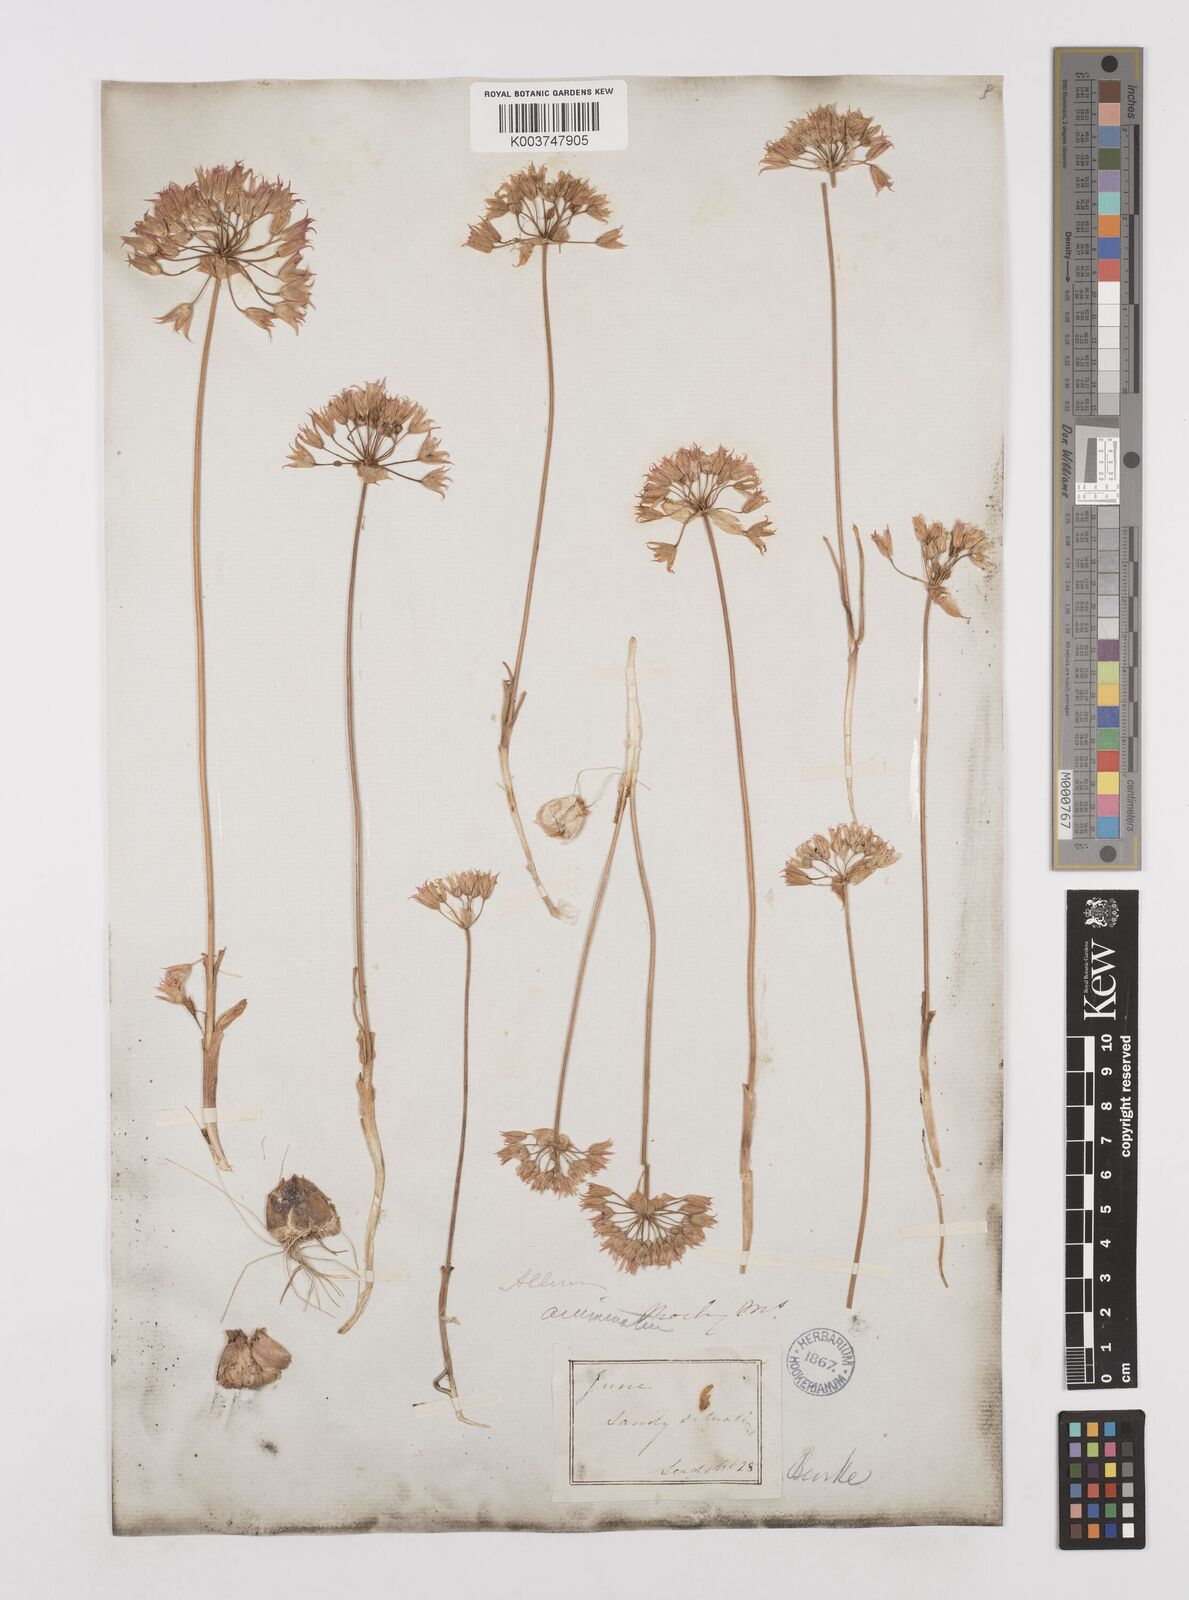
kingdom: Plantae
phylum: Tracheophyta
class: Liliopsida
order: Asparagales
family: Amaryllidaceae
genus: Allium
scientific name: Allium acuminatum
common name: Hooker's onion
